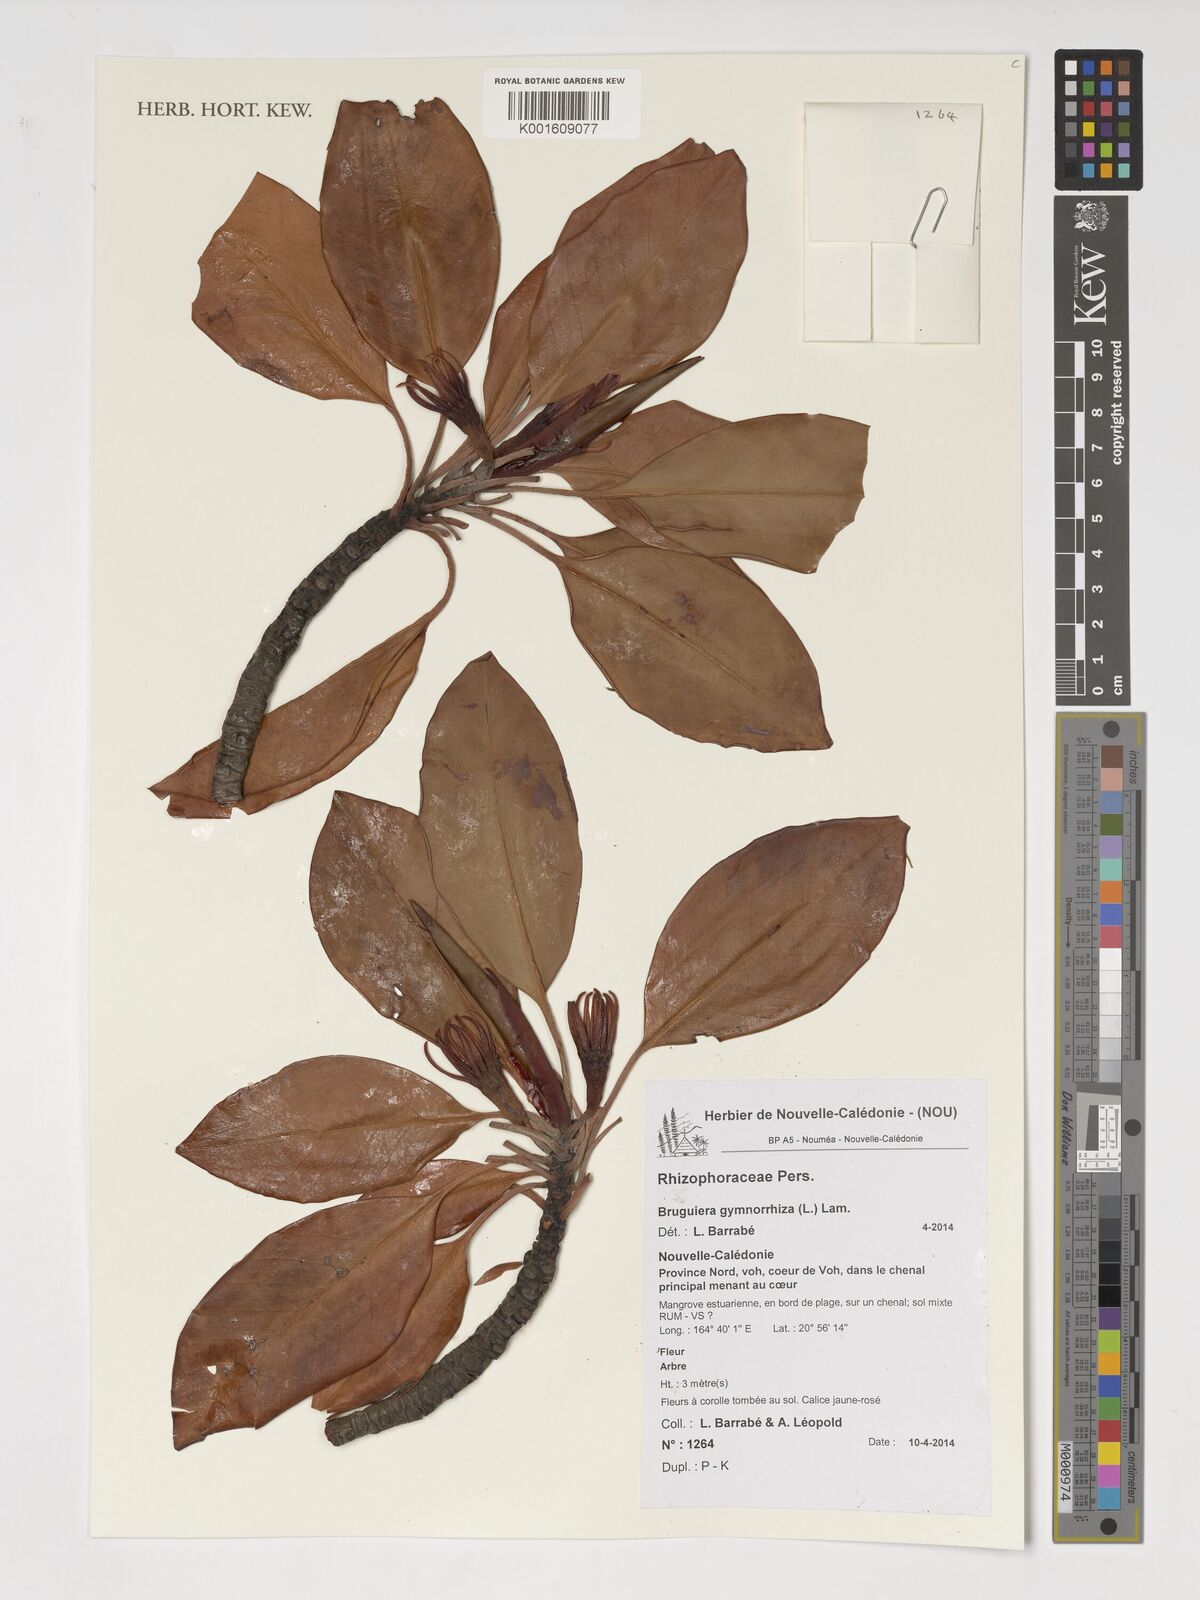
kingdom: Plantae
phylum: Tracheophyta
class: Magnoliopsida
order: Malpighiales
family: Rhizophoraceae
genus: Bruguiera
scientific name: Bruguiera gymnorhiza
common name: Oriental mangrove
